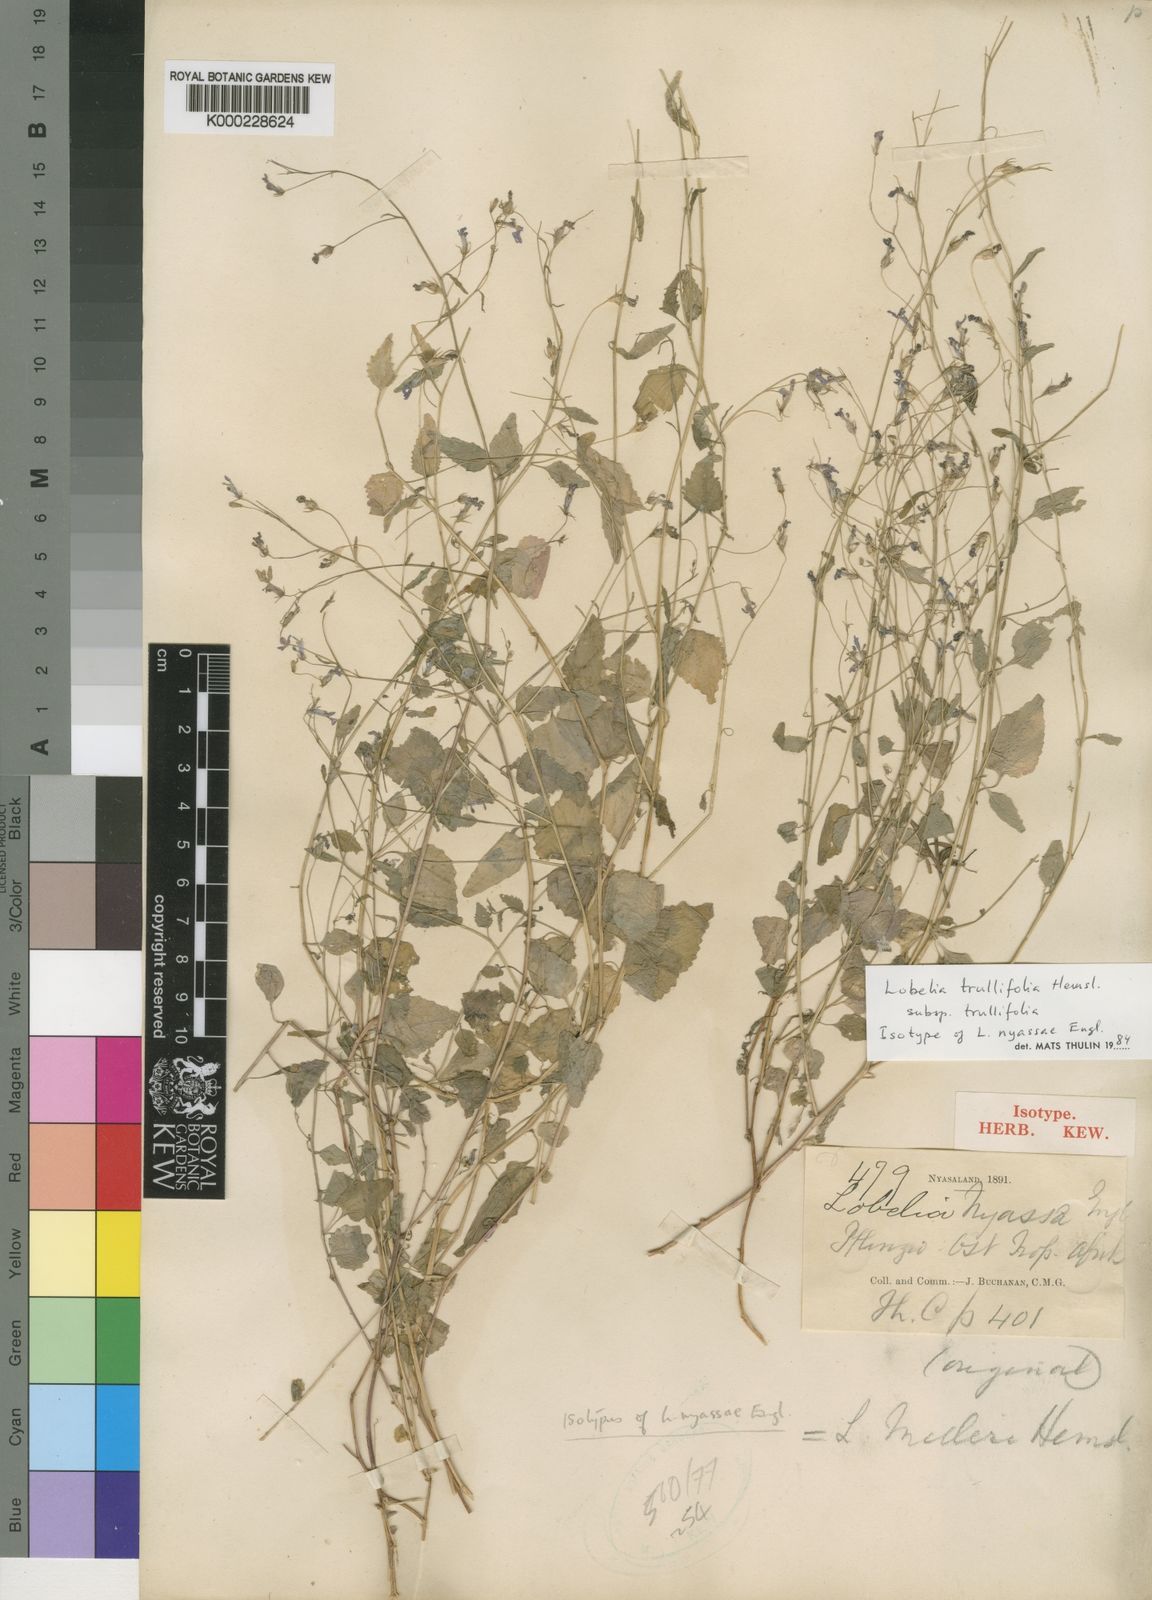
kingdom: Plantae
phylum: Tracheophyta
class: Magnoliopsida
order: Asterales
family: Campanulaceae
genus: Lobelia
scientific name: Lobelia trullifolia
